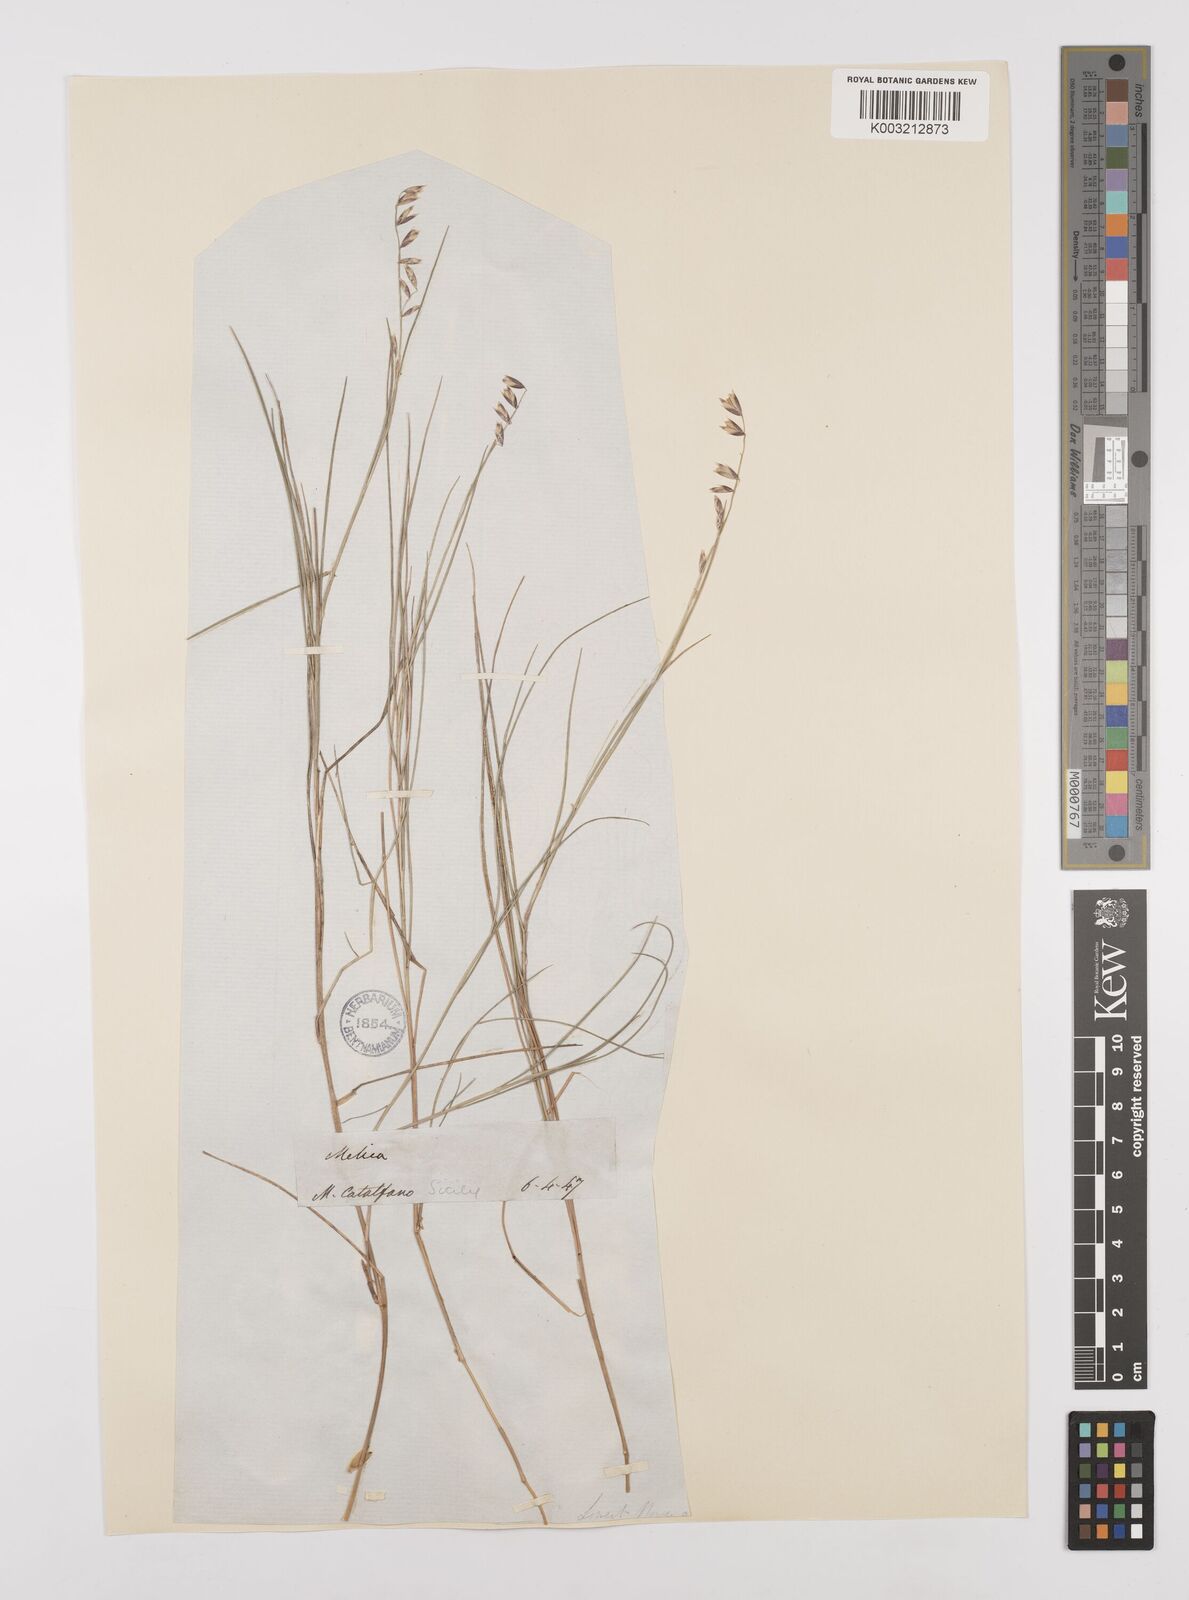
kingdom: Plantae
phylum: Tracheophyta
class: Liliopsida
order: Poales
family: Poaceae
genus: Melica
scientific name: Melica minuta
